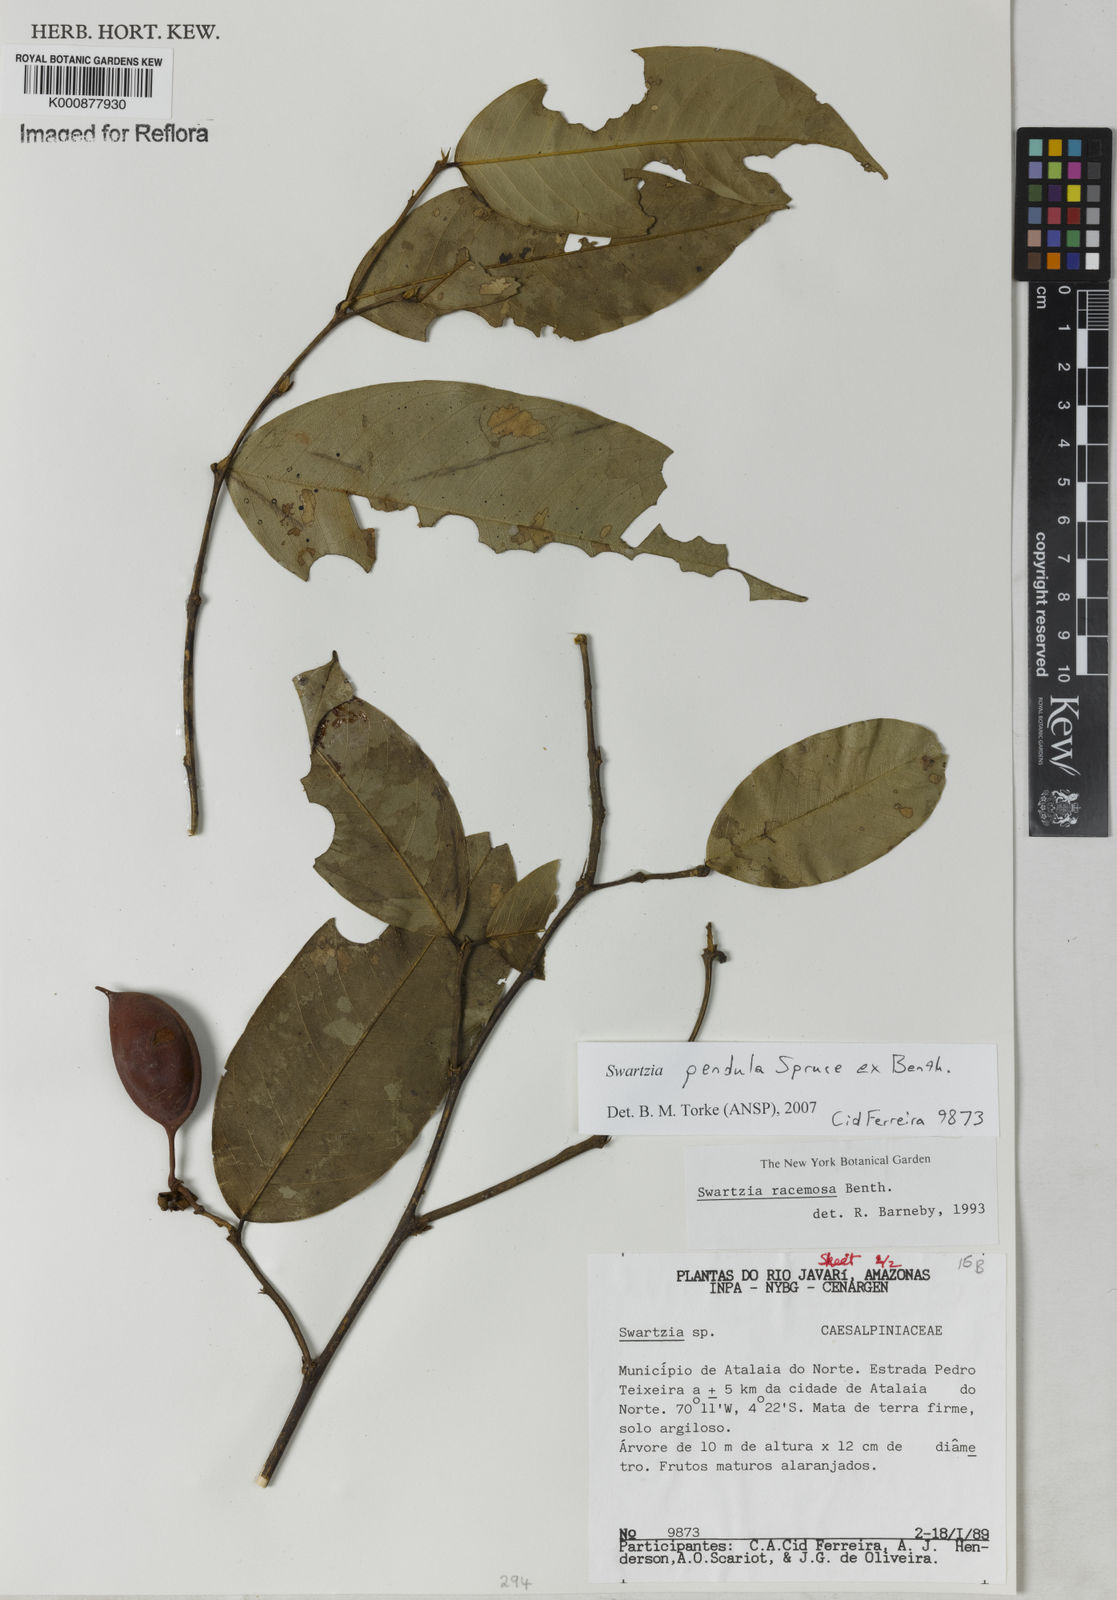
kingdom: Plantae
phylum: Tracheophyta
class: Magnoliopsida
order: Fabales
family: Fabaceae
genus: Swartzia
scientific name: Swartzia pendula
